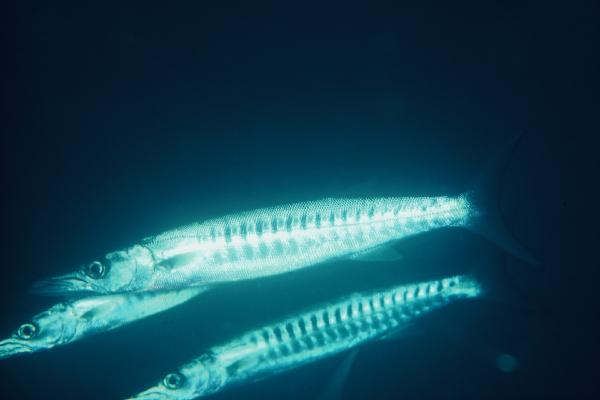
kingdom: Animalia
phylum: Chordata
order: Perciformes
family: Sphyraenidae
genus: Sphyraena
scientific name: Sphyraena putnamae
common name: Sawtooth barracuda
